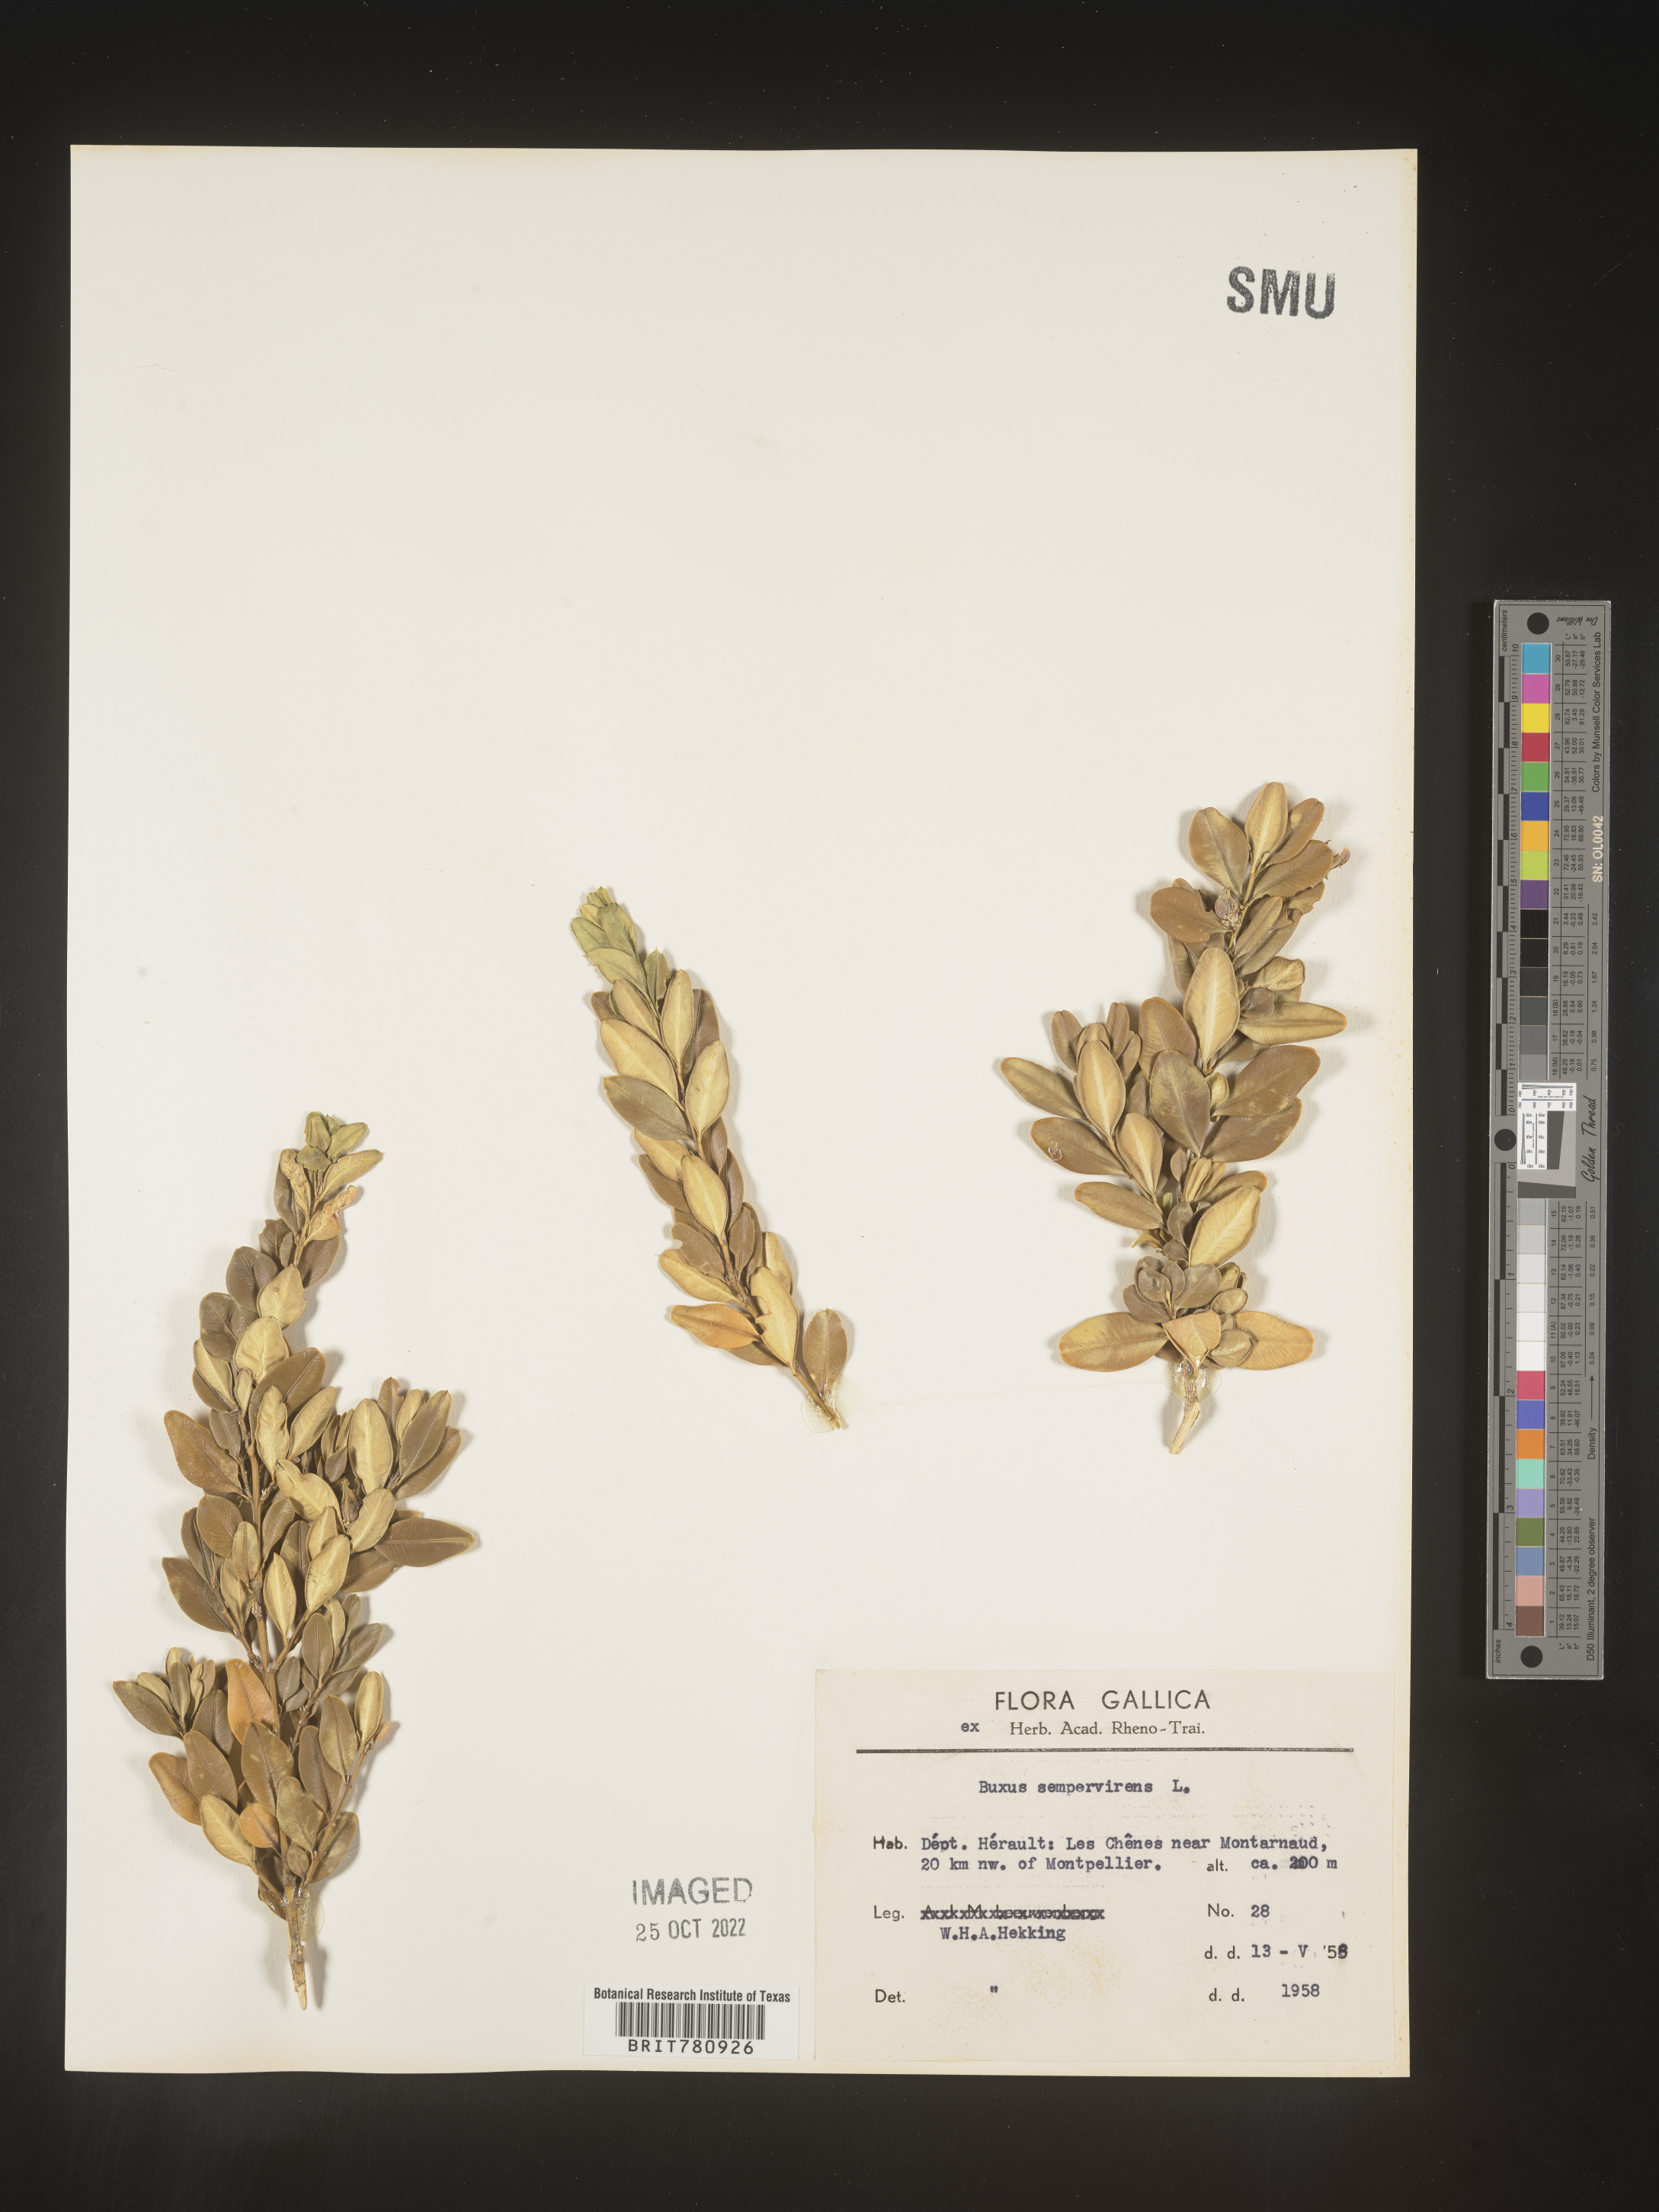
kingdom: Plantae
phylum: Tracheophyta
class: Magnoliopsida
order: Buxales
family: Buxaceae
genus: Buxus
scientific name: Buxus
